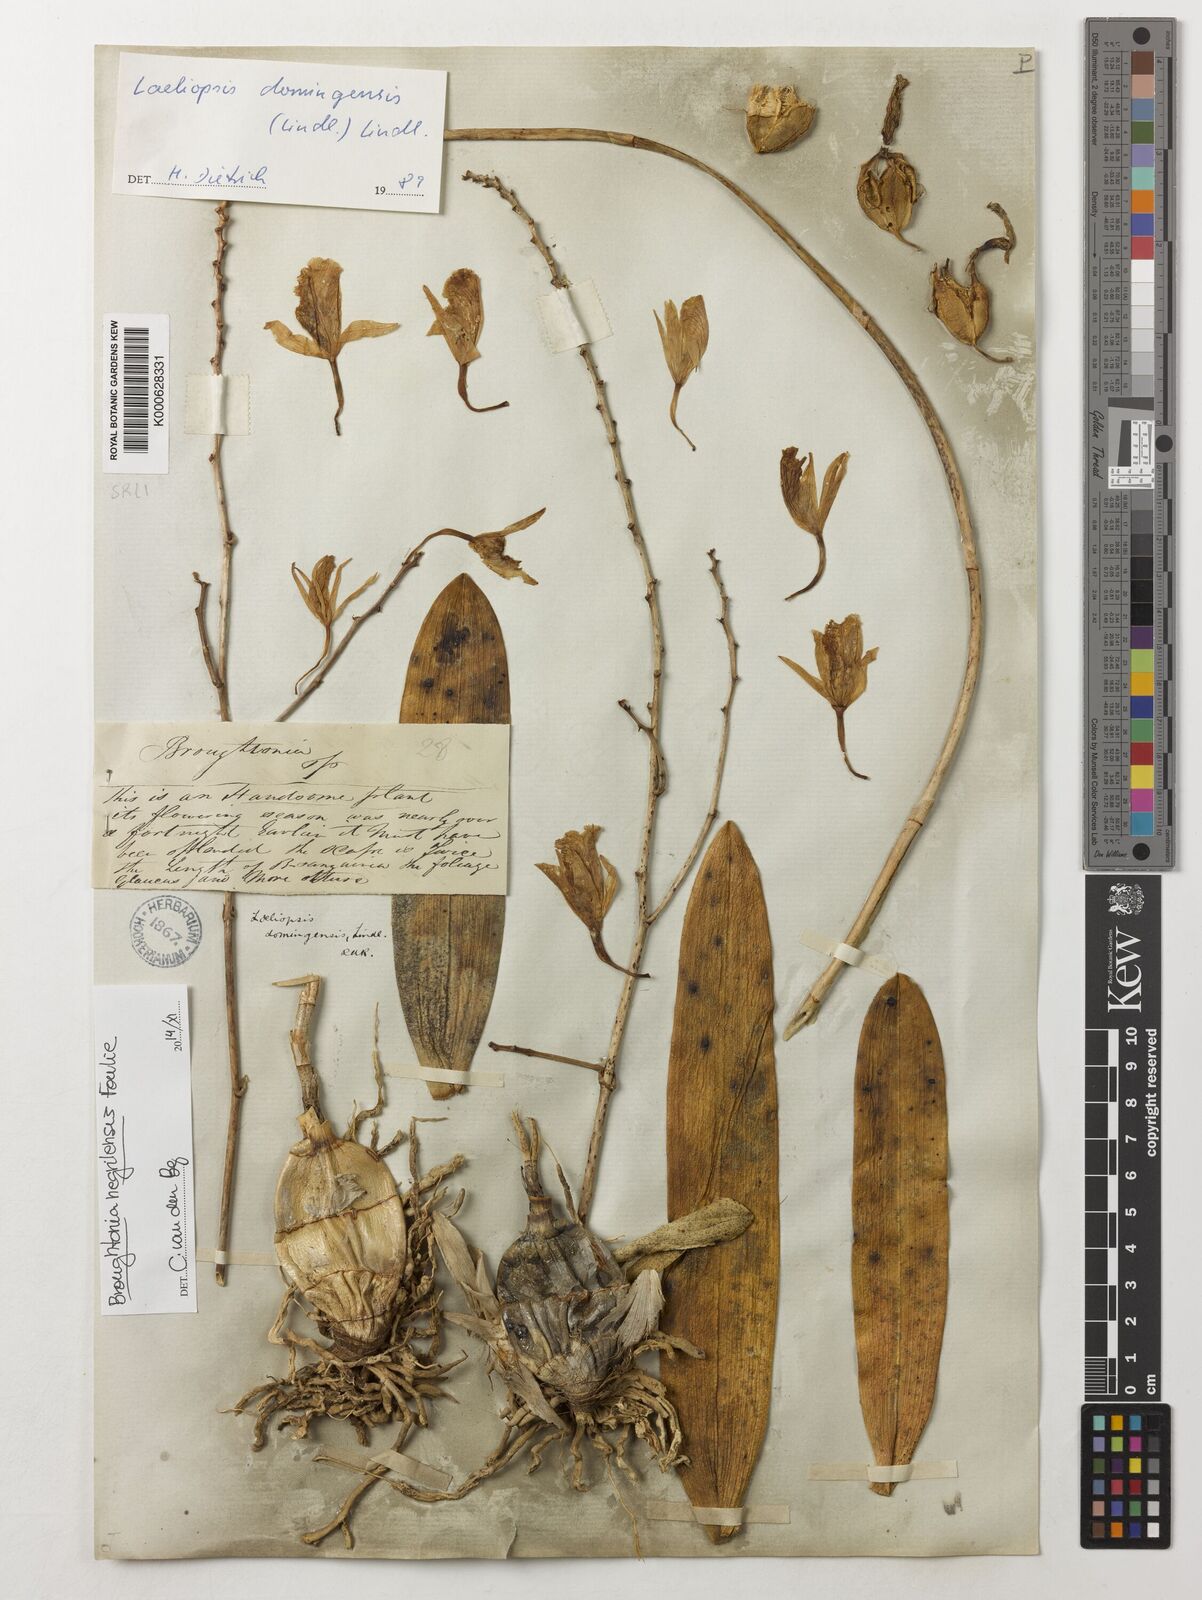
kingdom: Plantae
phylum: Tracheophyta
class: Liliopsida
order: Asparagales
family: Orchidaceae
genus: Broughtonia
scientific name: Broughtonia negrilensis
